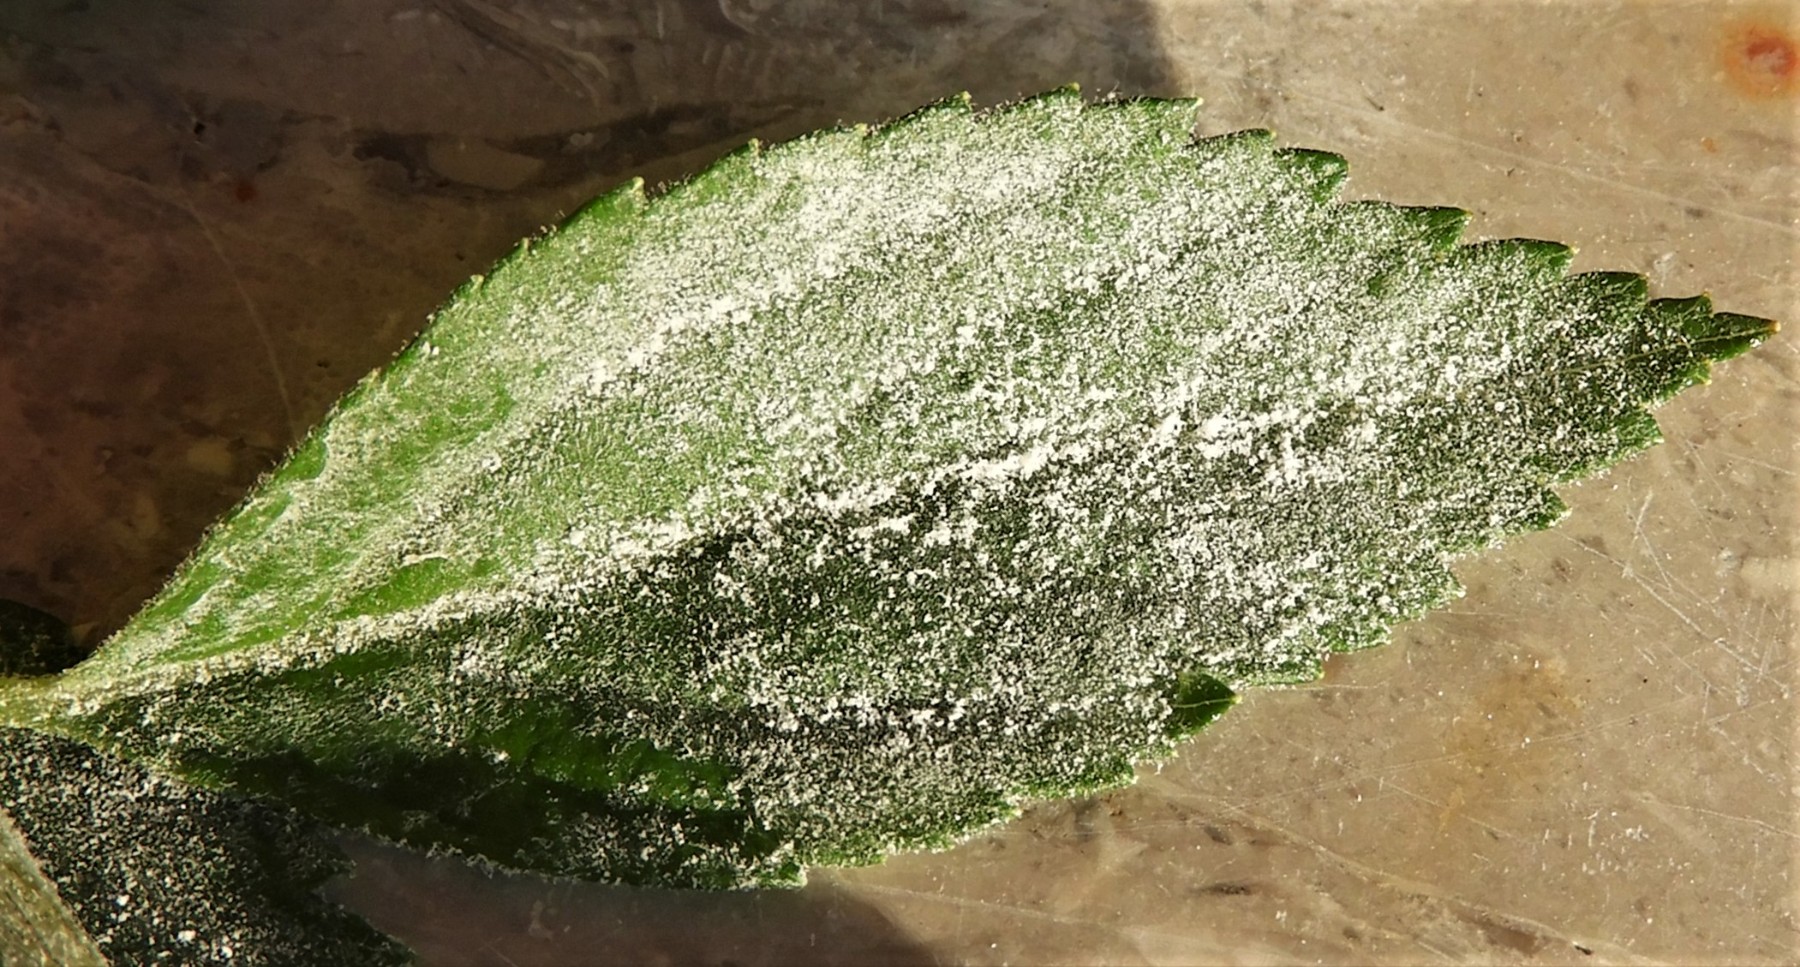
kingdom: Fungi
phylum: Ascomycota
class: Leotiomycetes
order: Helotiales
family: Erysiphaceae
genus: Podosphaera
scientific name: Podosphaera clandestina
